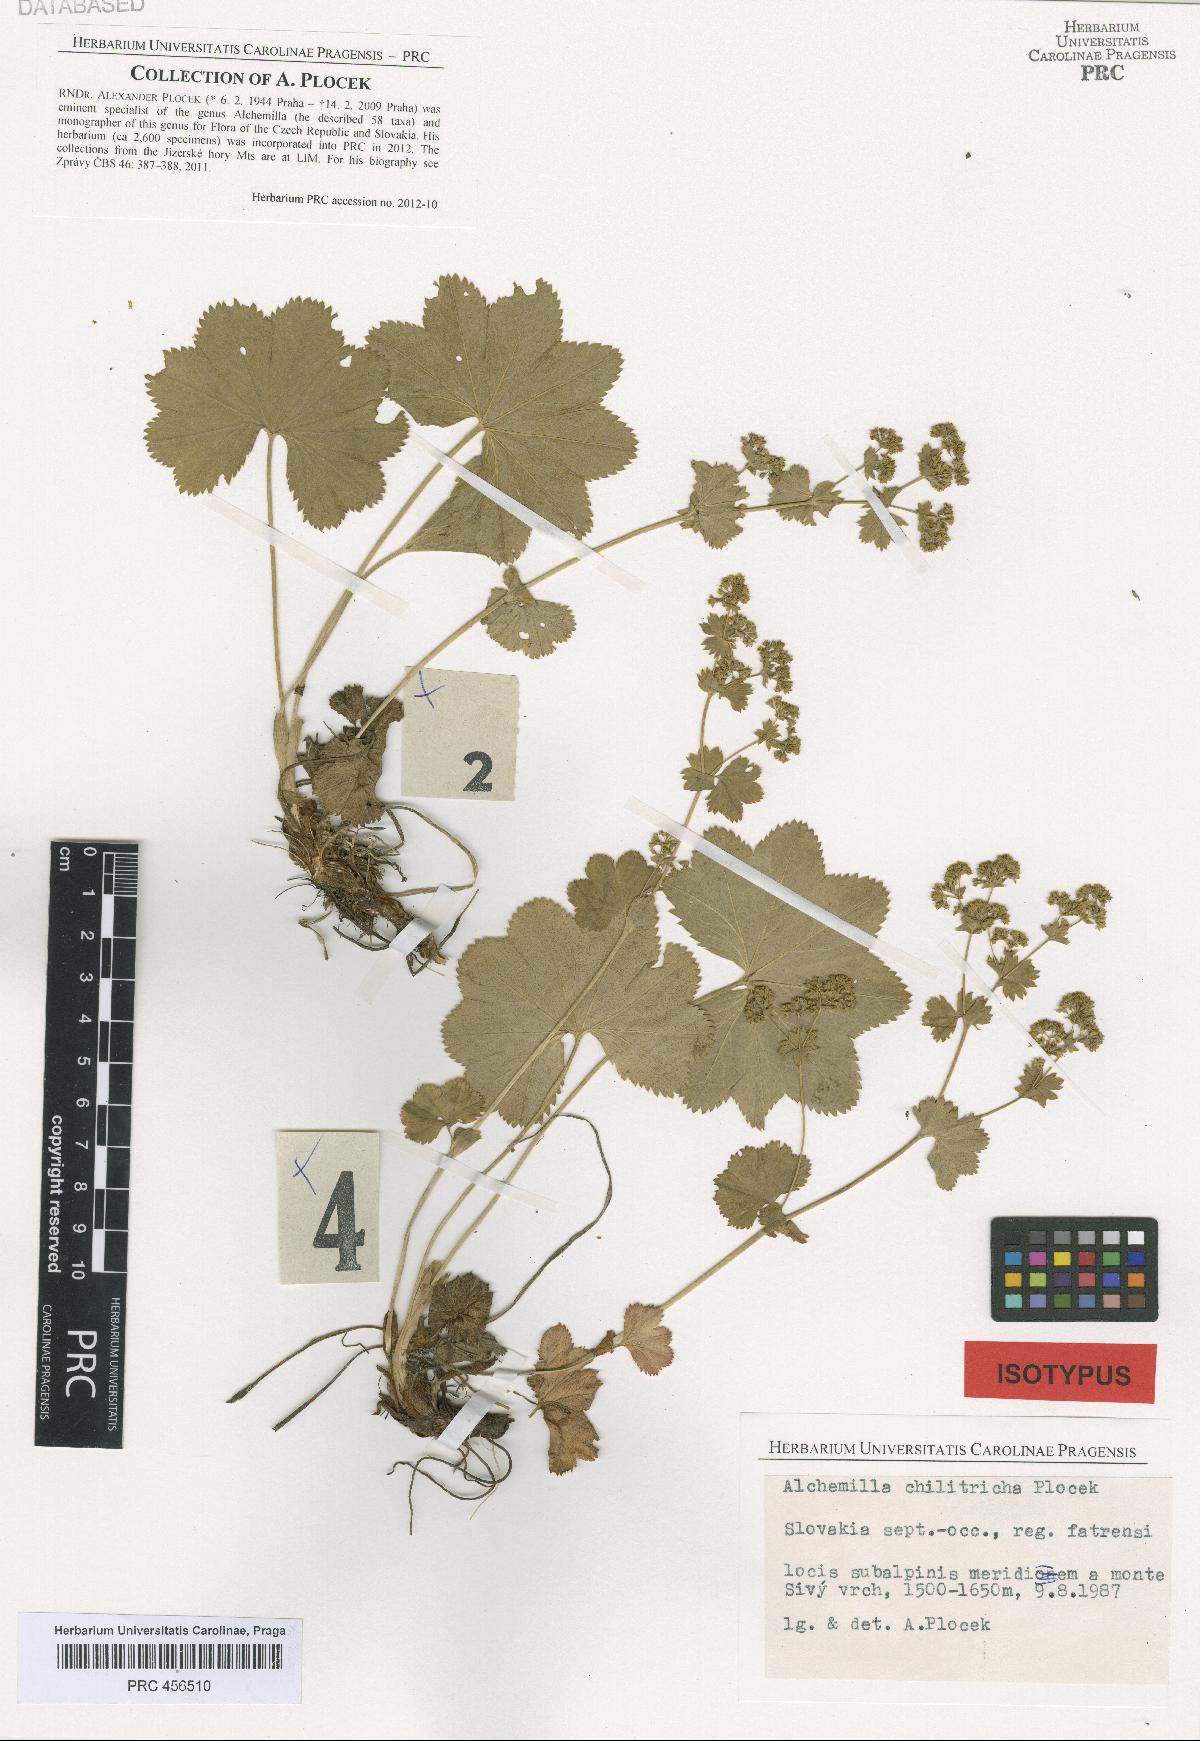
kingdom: Plantae
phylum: Tracheophyta
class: Magnoliopsida
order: Rosales
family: Rosaceae
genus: Alchemilla
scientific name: Alchemilla chilitricha
